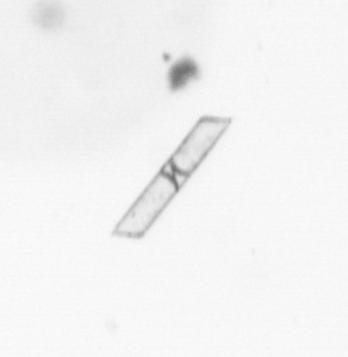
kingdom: Chromista
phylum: Ochrophyta
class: Bacillariophyceae
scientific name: Bacillariophyceae
